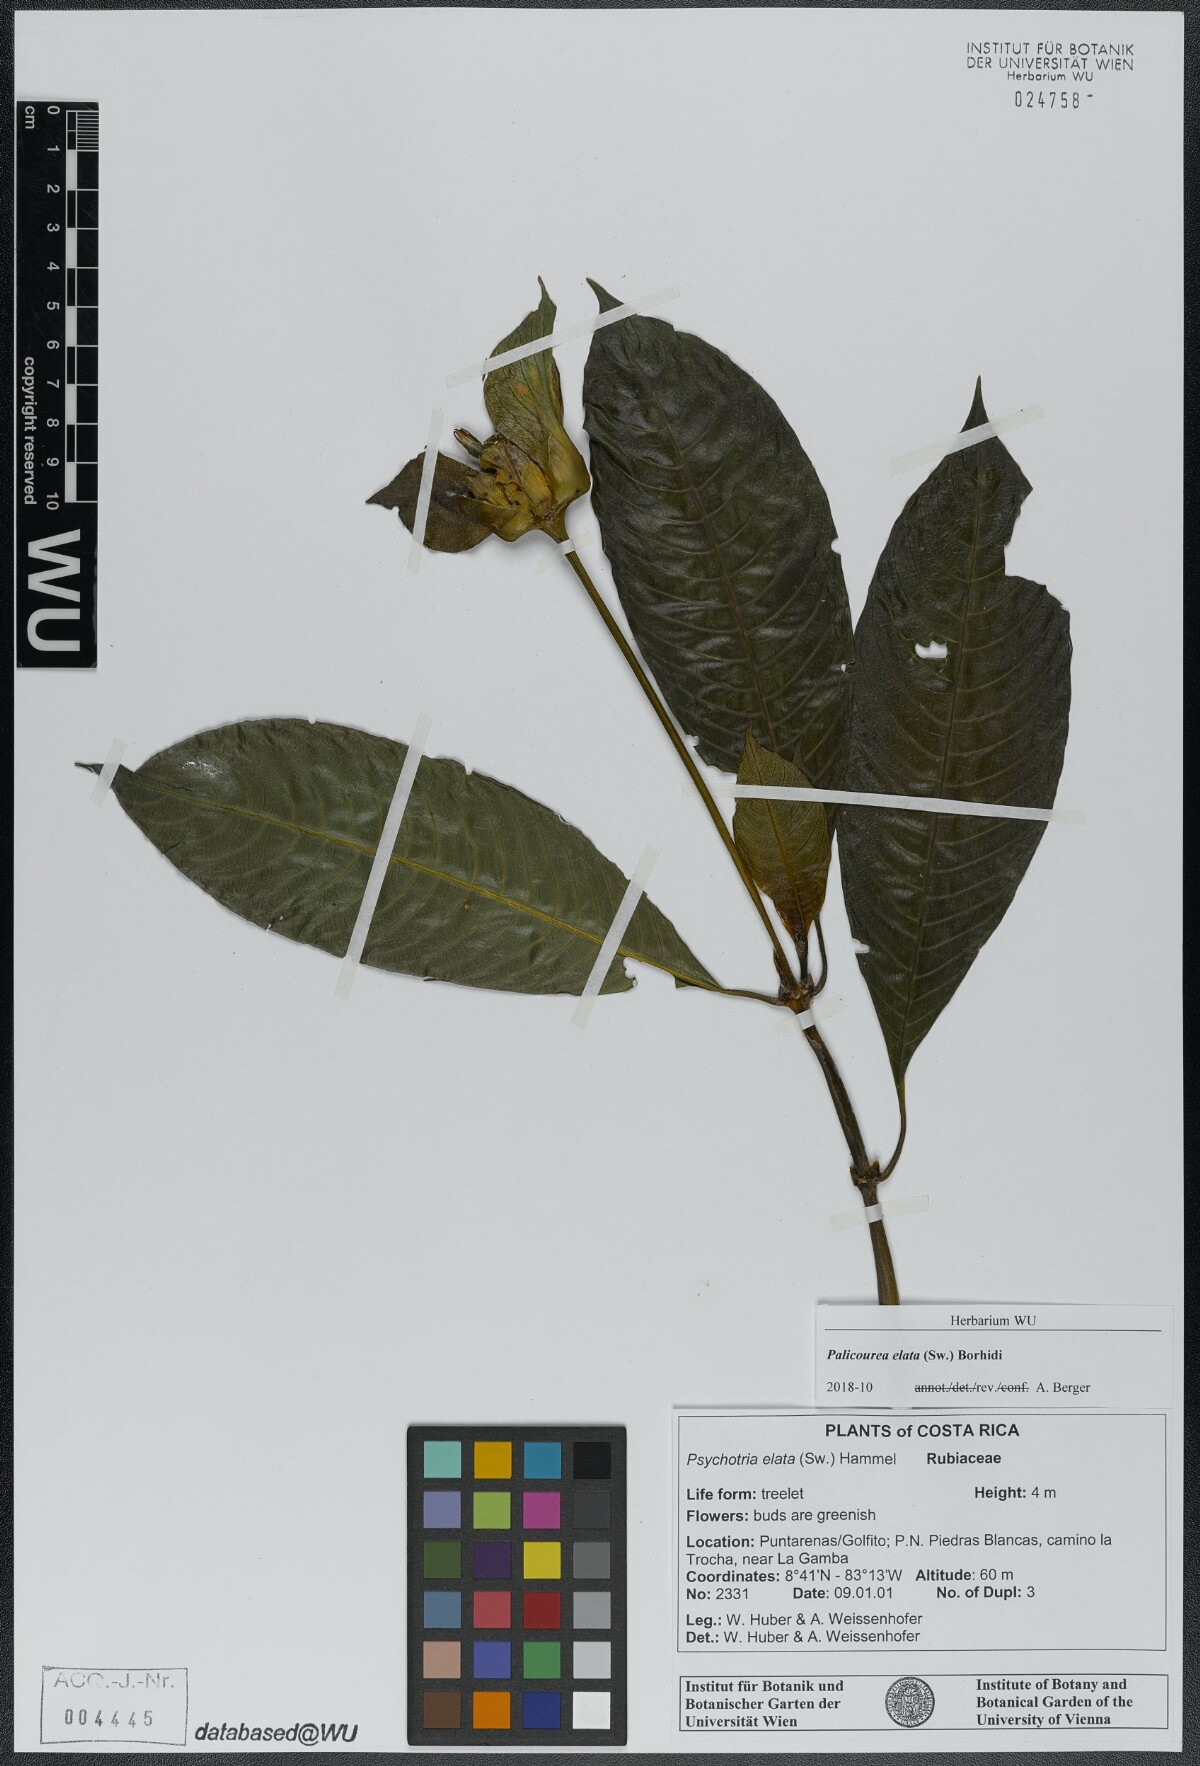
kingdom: Plantae
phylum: Tracheophyta
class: Magnoliopsida
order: Gentianales
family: Rubiaceae
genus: Palicourea
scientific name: Palicourea elata
